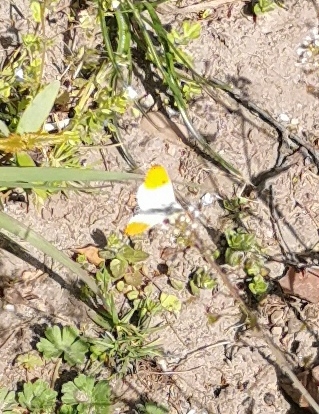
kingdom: Animalia
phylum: Arthropoda
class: Insecta
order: Lepidoptera
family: Pieridae
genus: Anthocharis
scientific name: Anthocharis cardamines
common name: Aurora
